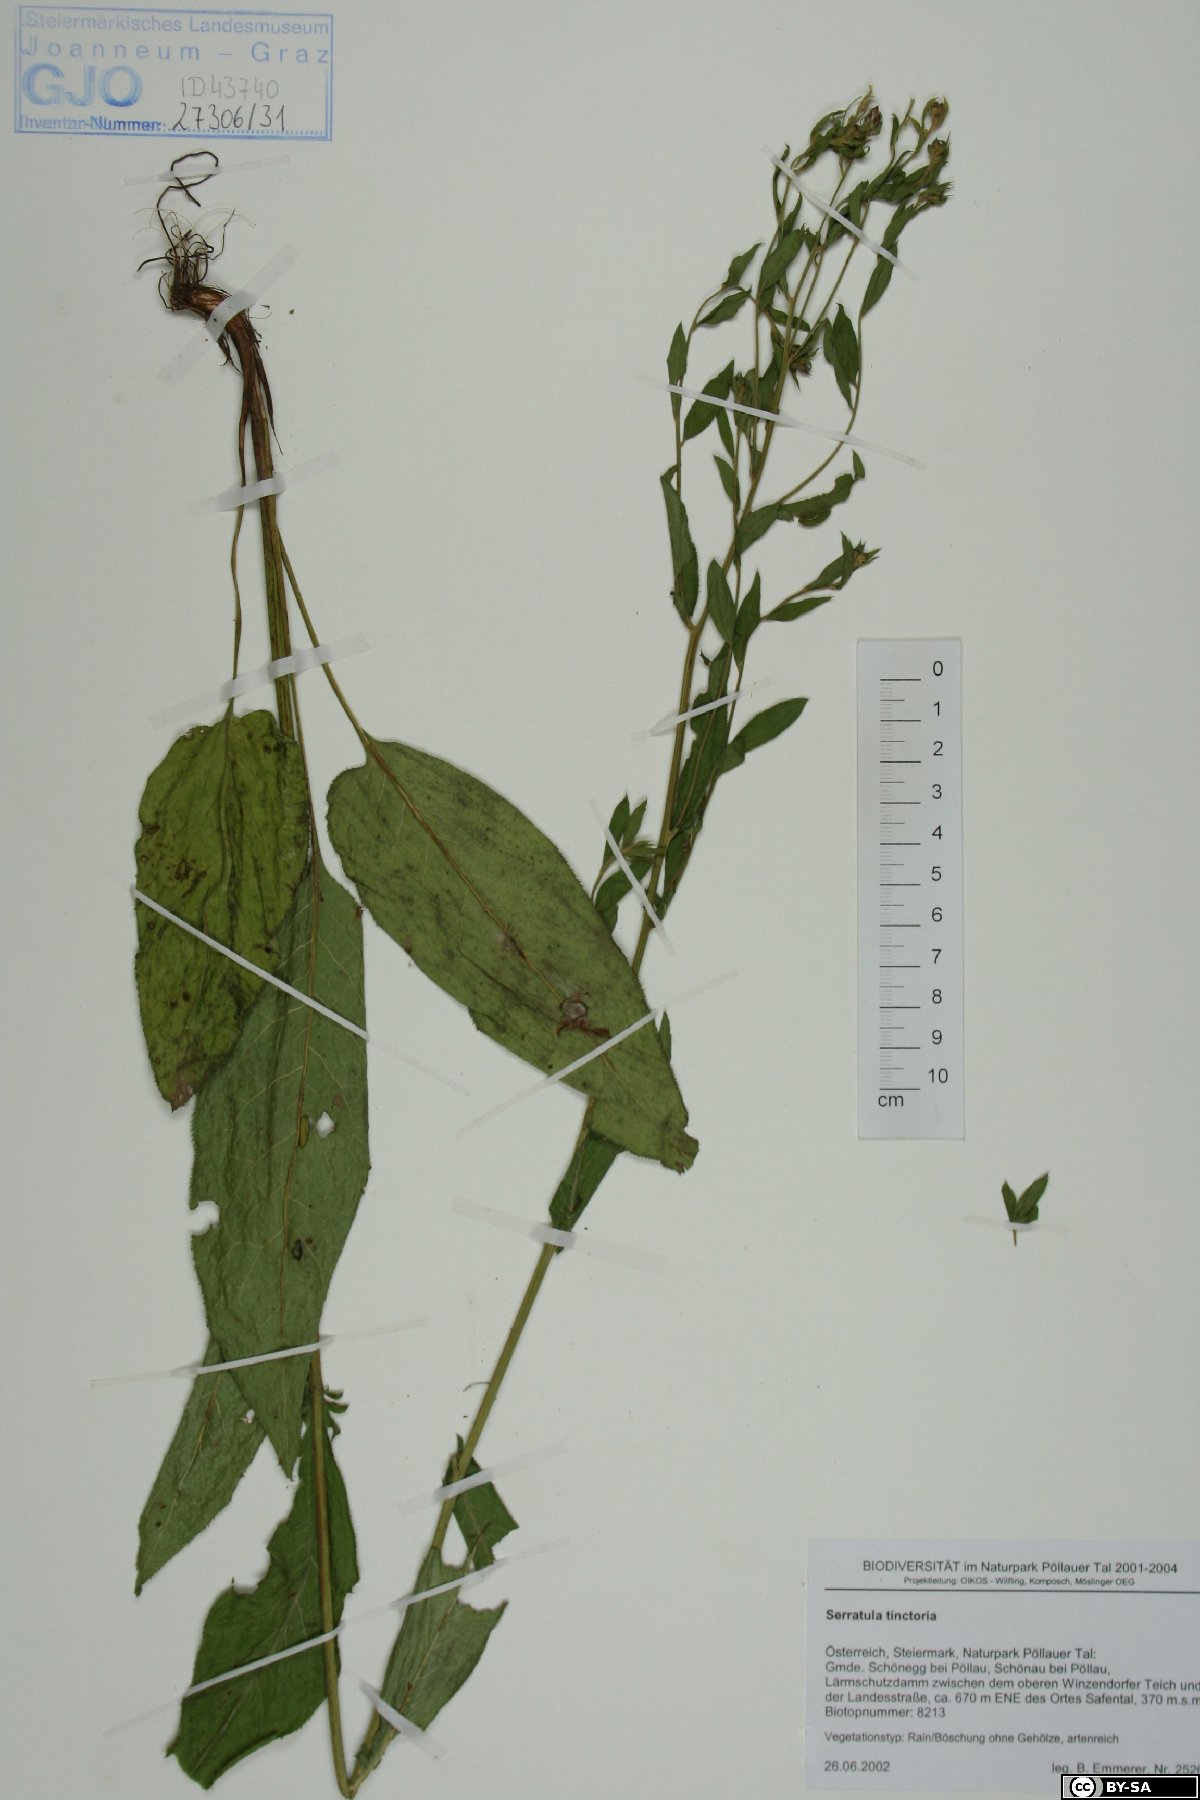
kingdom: Plantae
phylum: Tracheophyta
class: Magnoliopsida
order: Asterales
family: Asteraceae
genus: Serratula
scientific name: Serratula tinctoria
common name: Saw-wort
